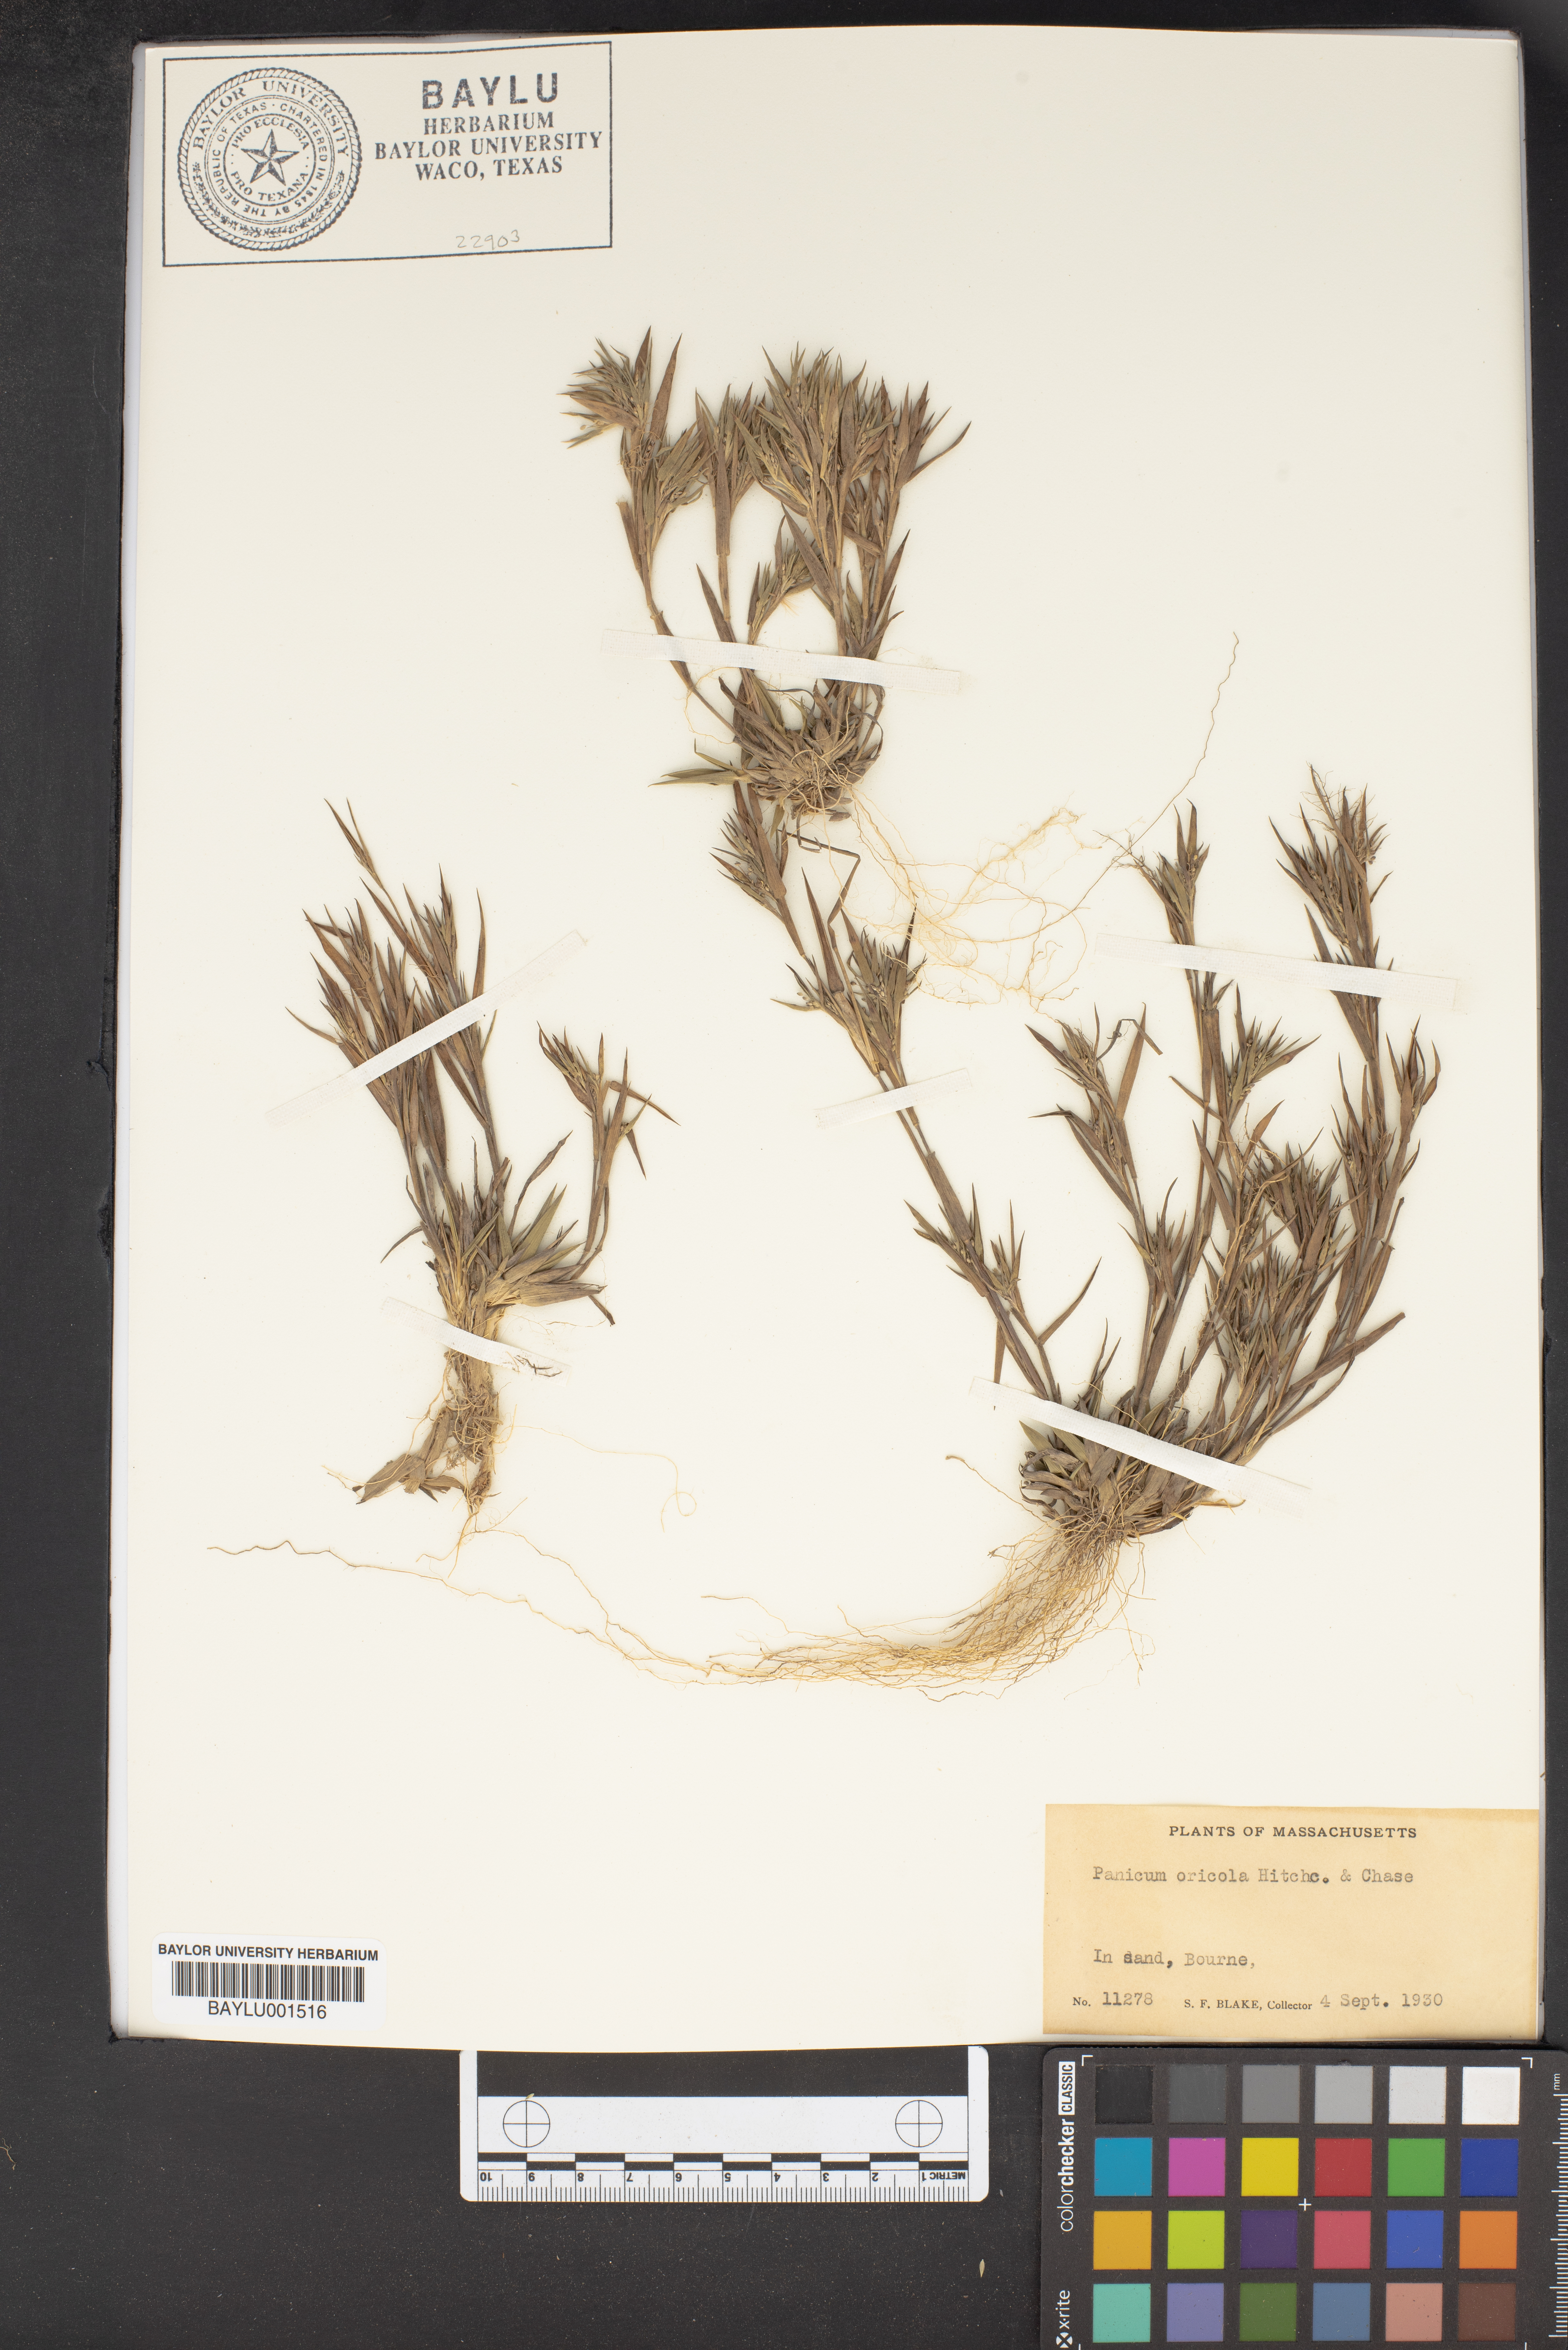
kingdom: Plantae
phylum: Tracheophyta
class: Liliopsida
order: Poales
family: Poaceae
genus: Dichanthelium
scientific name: Dichanthelium sabulorum
